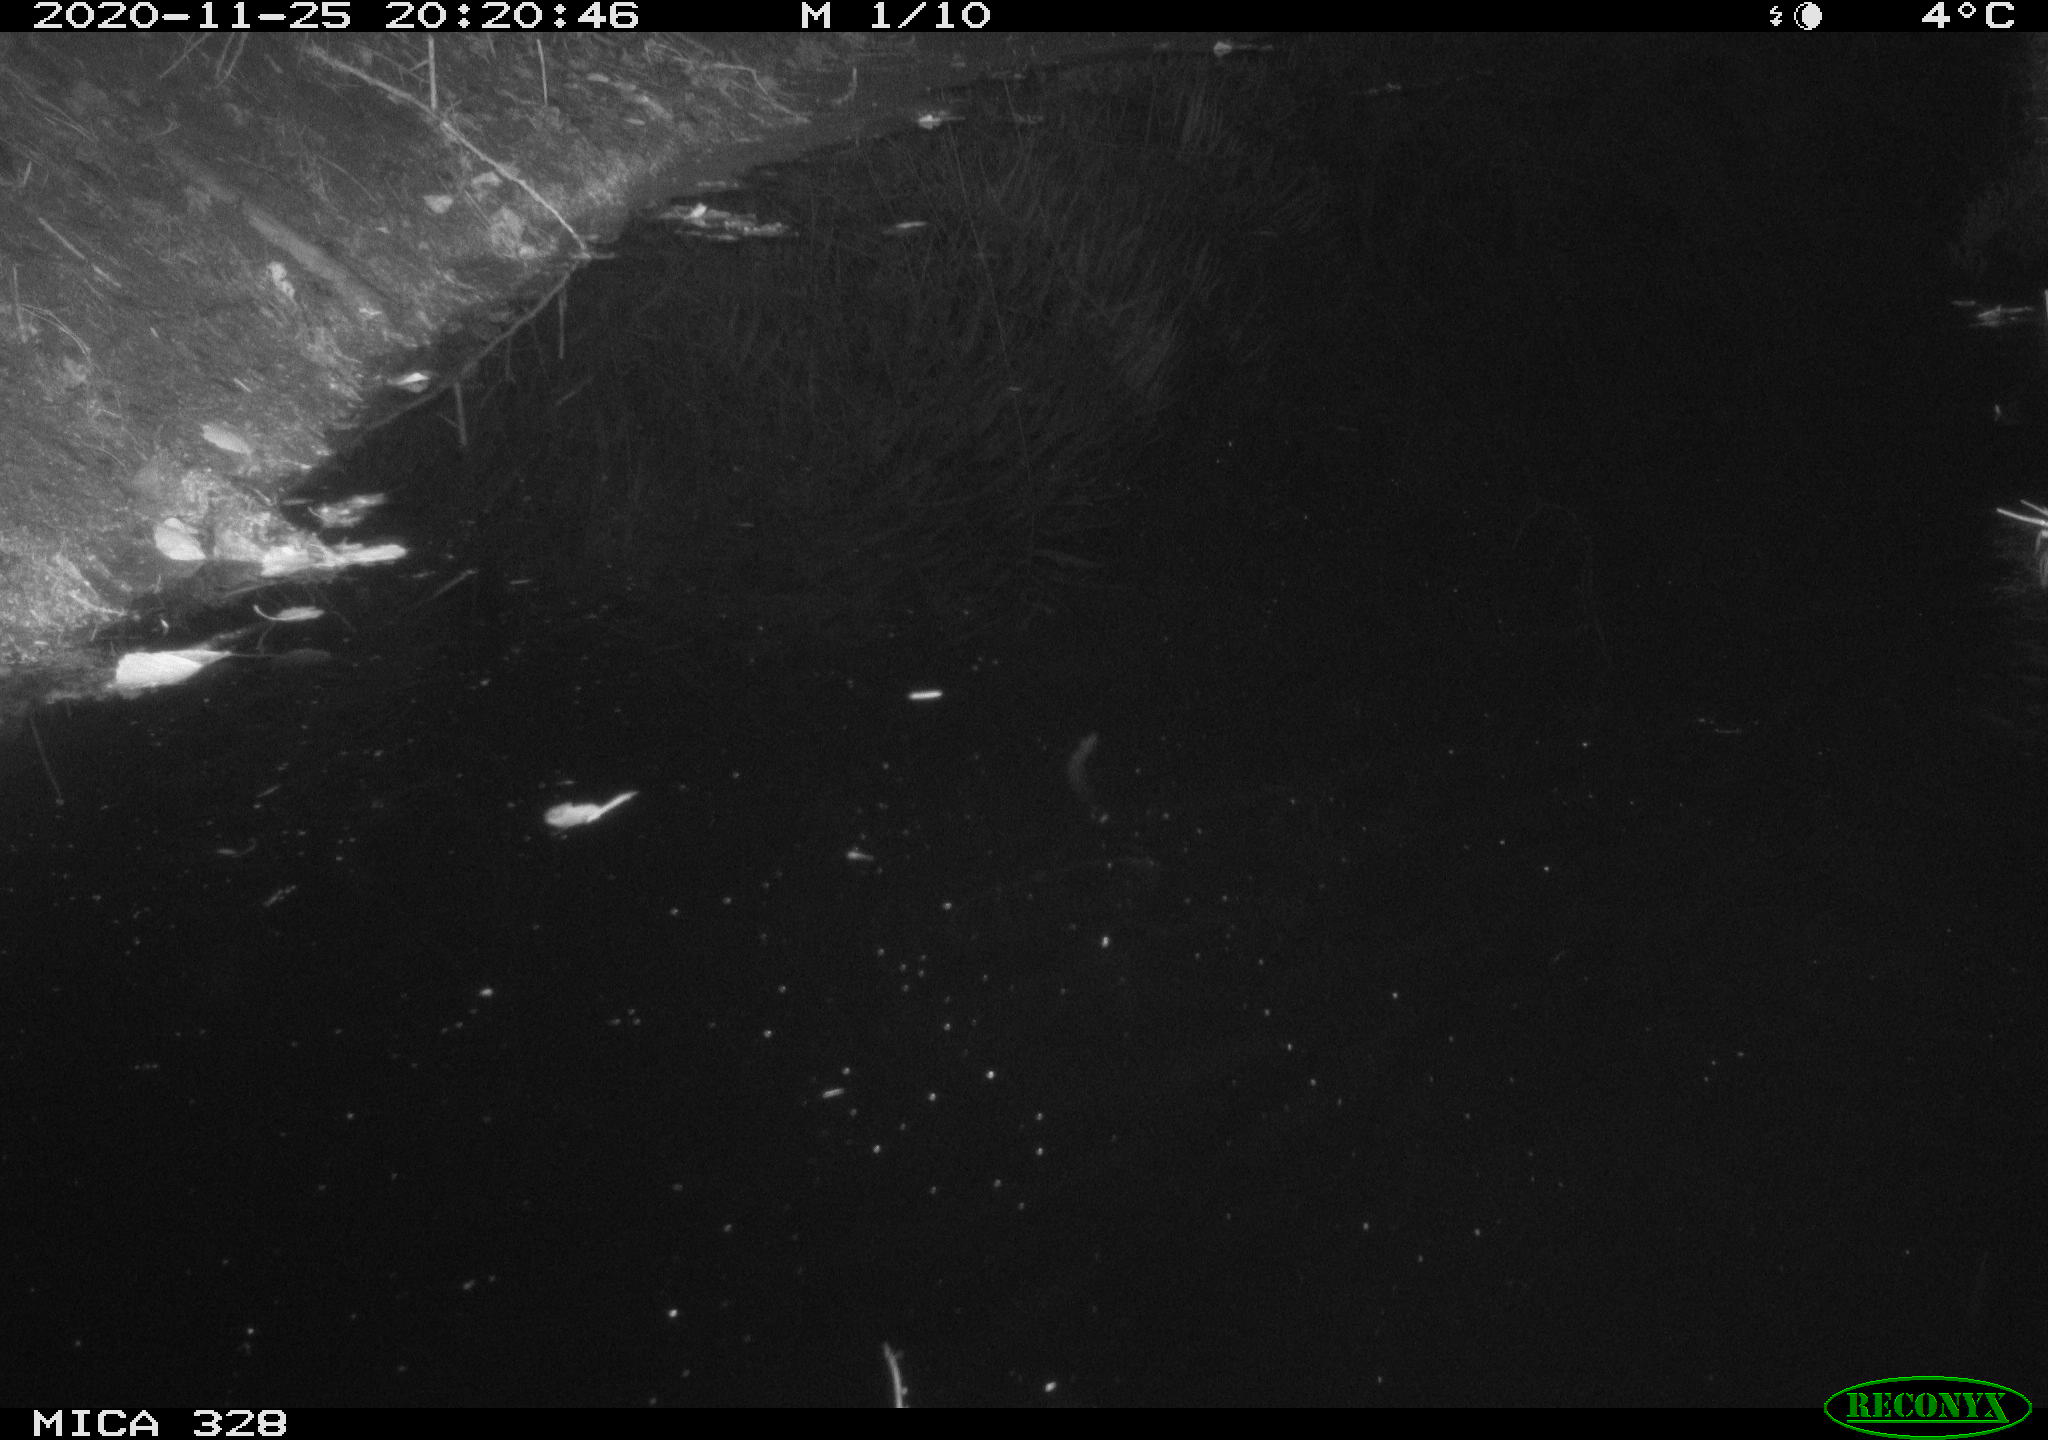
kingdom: Animalia
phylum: Chordata
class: Mammalia
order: Rodentia
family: Cricetidae
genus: Ondatra
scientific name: Ondatra zibethicus
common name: Muskrat
